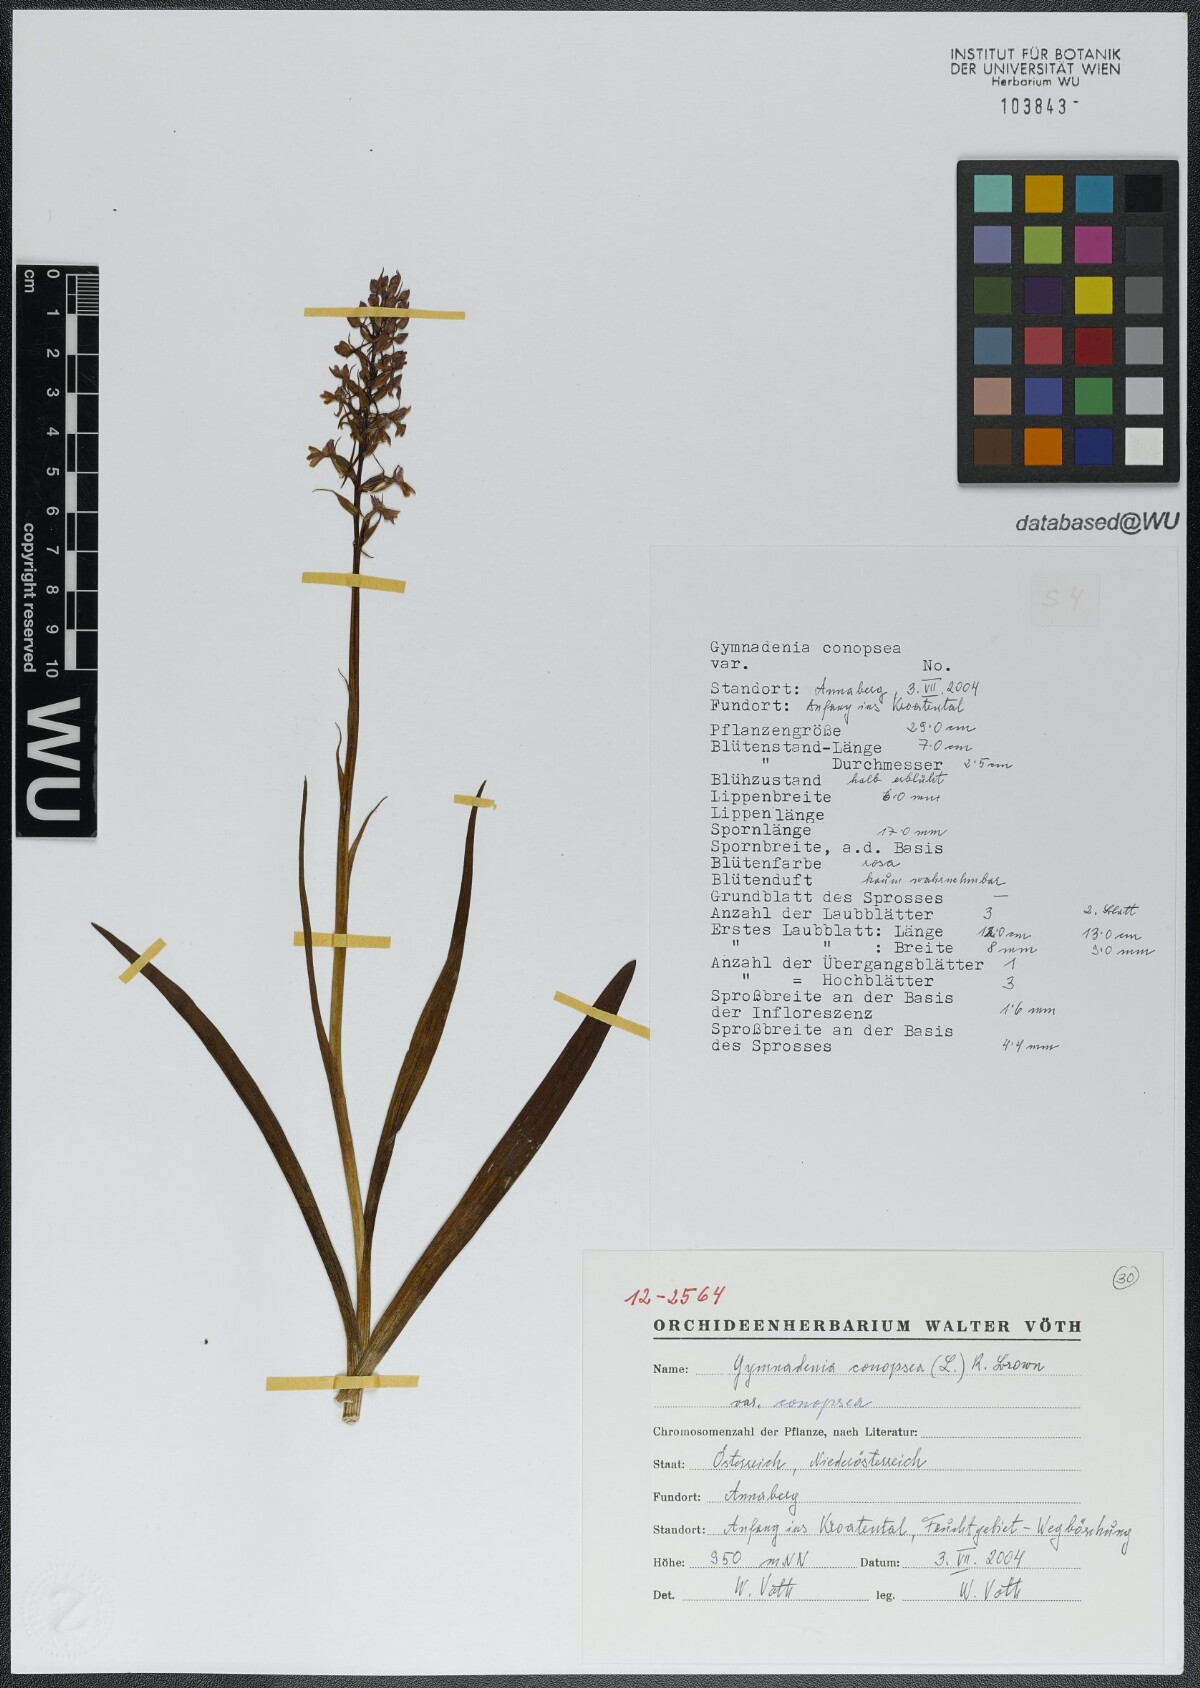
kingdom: Plantae
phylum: Tracheophyta
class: Liliopsida
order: Asparagales
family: Orchidaceae
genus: Gymnadenia
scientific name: Gymnadenia conopsea
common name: Fragrant orchid
